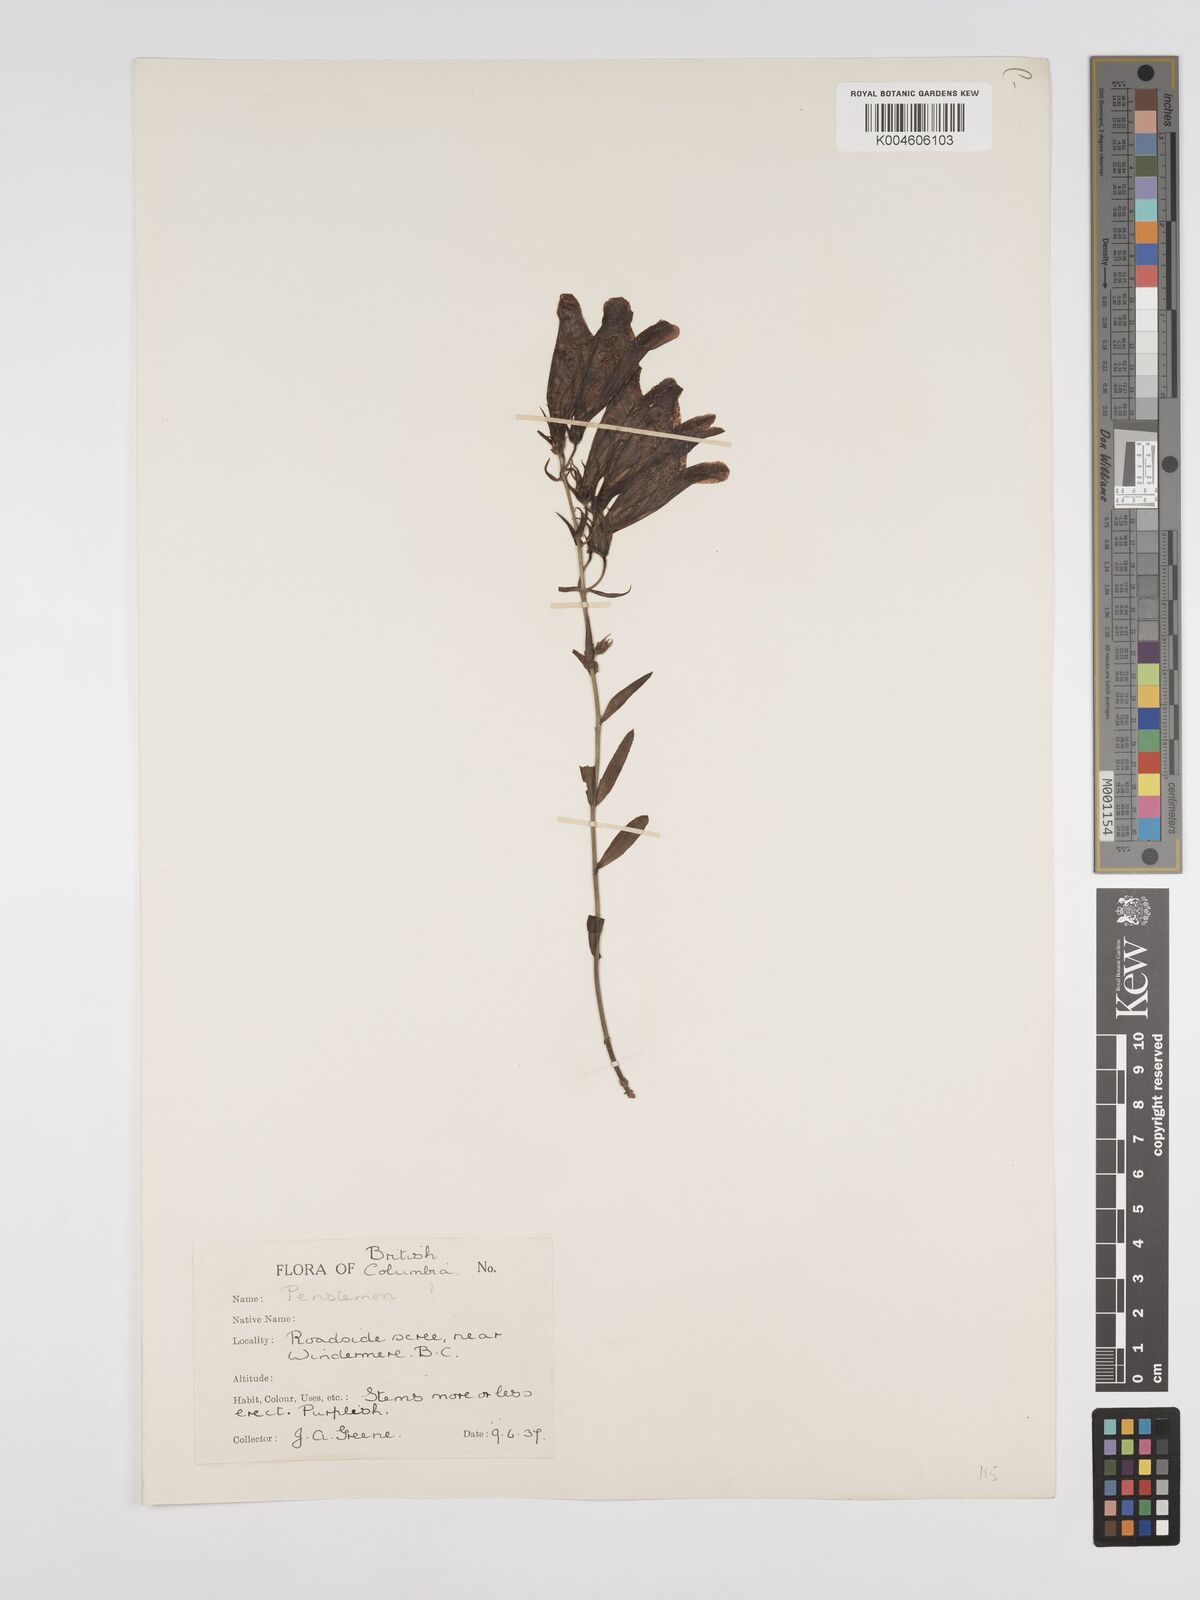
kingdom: Plantae
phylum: Tracheophyta
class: Magnoliopsida
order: Lamiales
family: Plantaginaceae
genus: Penstemon
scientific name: Penstemon
